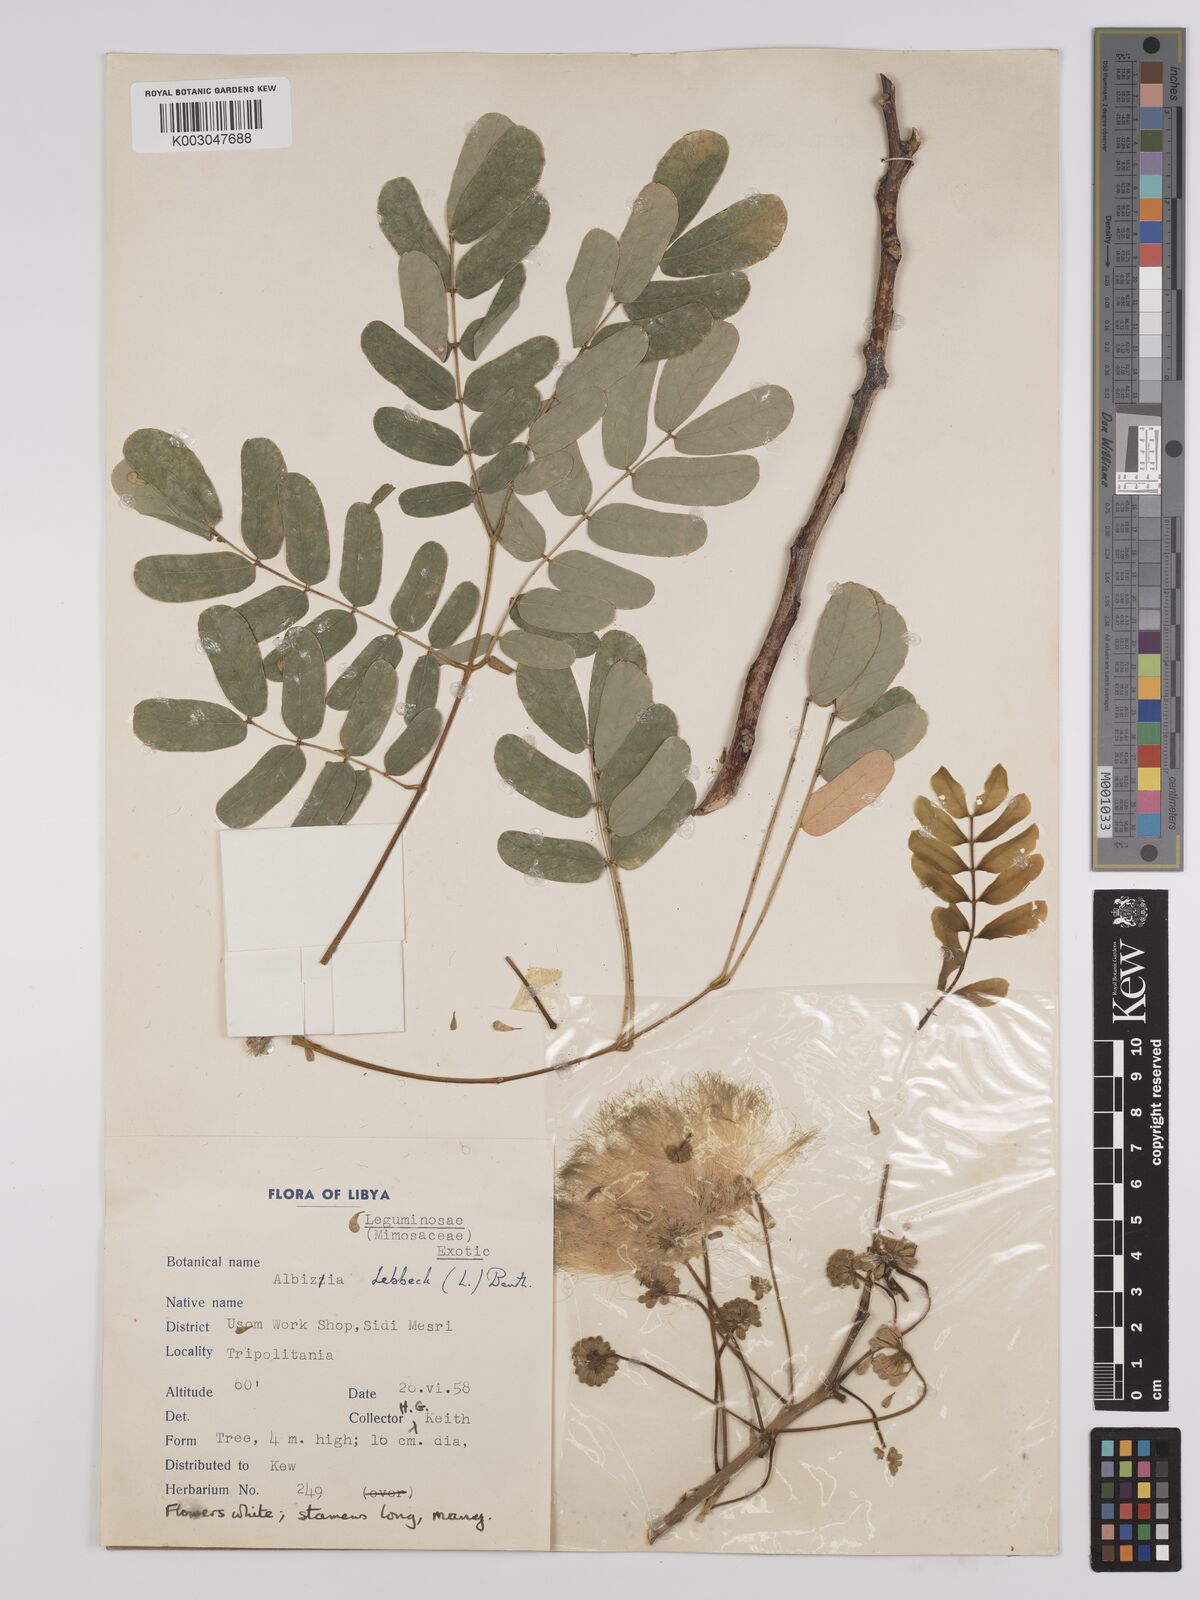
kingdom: Plantae
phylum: Tracheophyta
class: Magnoliopsida
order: Fabales
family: Fabaceae
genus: Albizia
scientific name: Albizia lebbeck
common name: Woman's tongue
